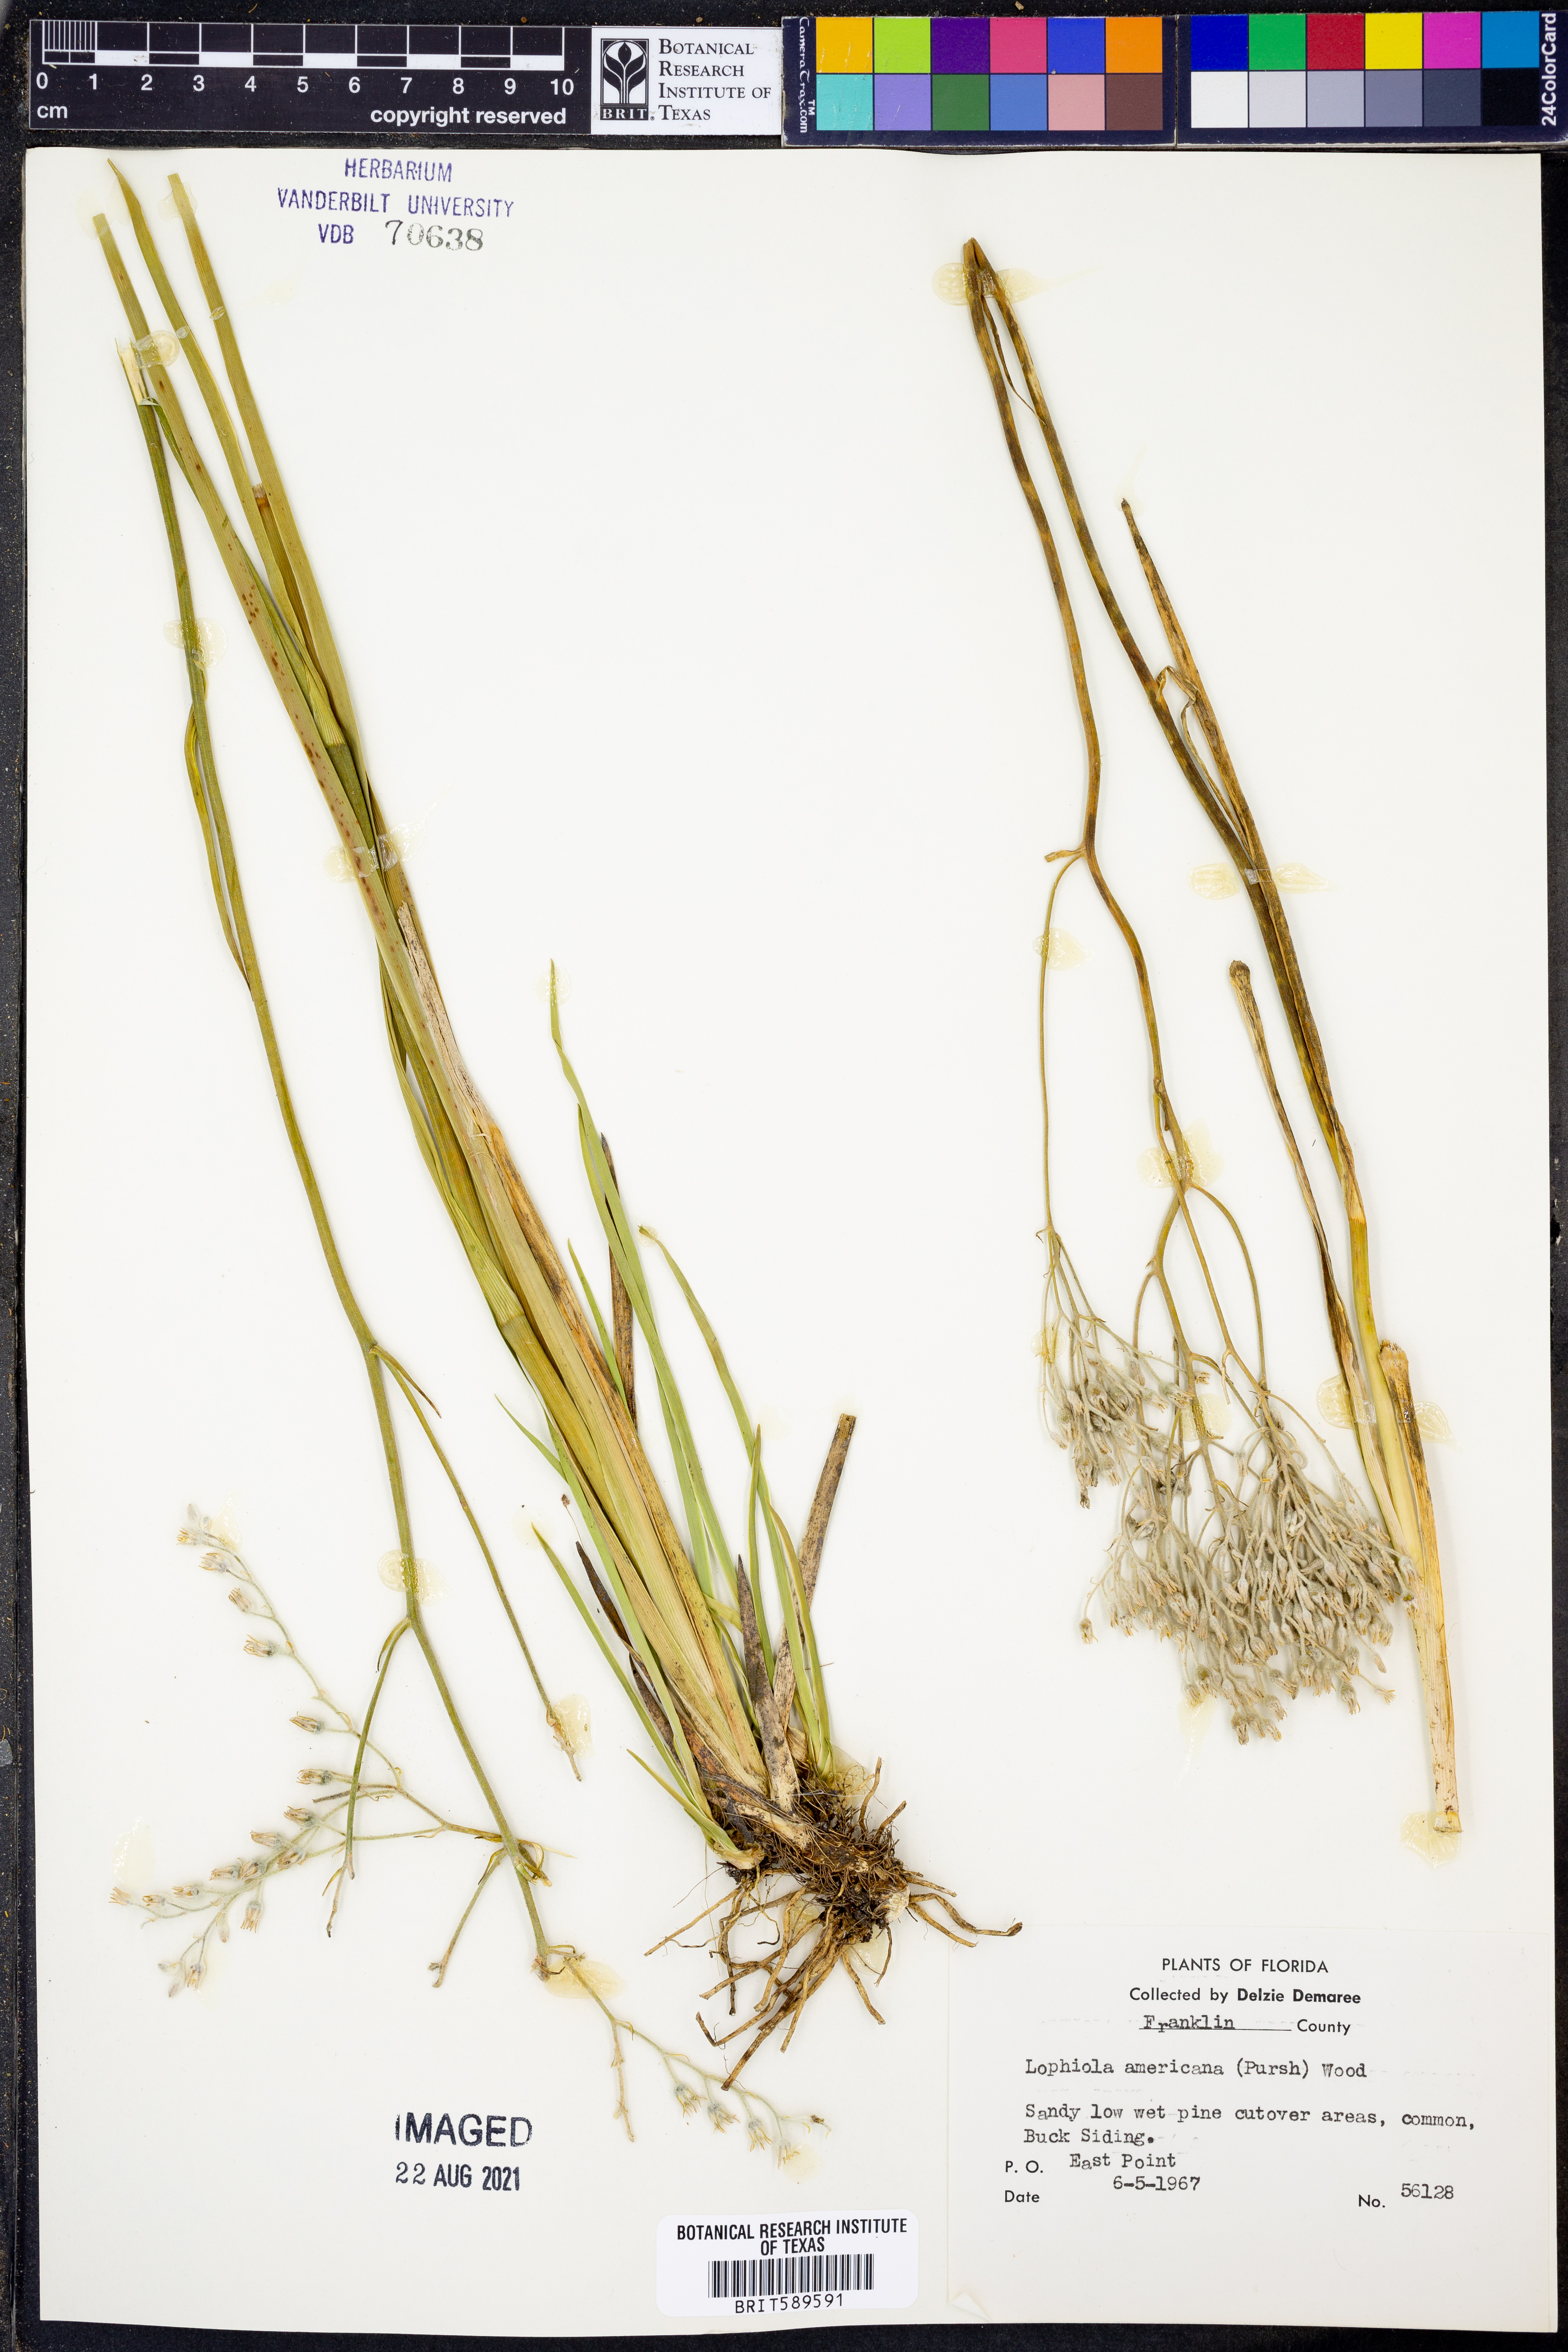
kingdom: Plantae
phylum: Tracheophyta
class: Liliopsida
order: Dioscoreales
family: Nartheciaceae
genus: Lophiola
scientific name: Lophiola aurea
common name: Golden-crest
